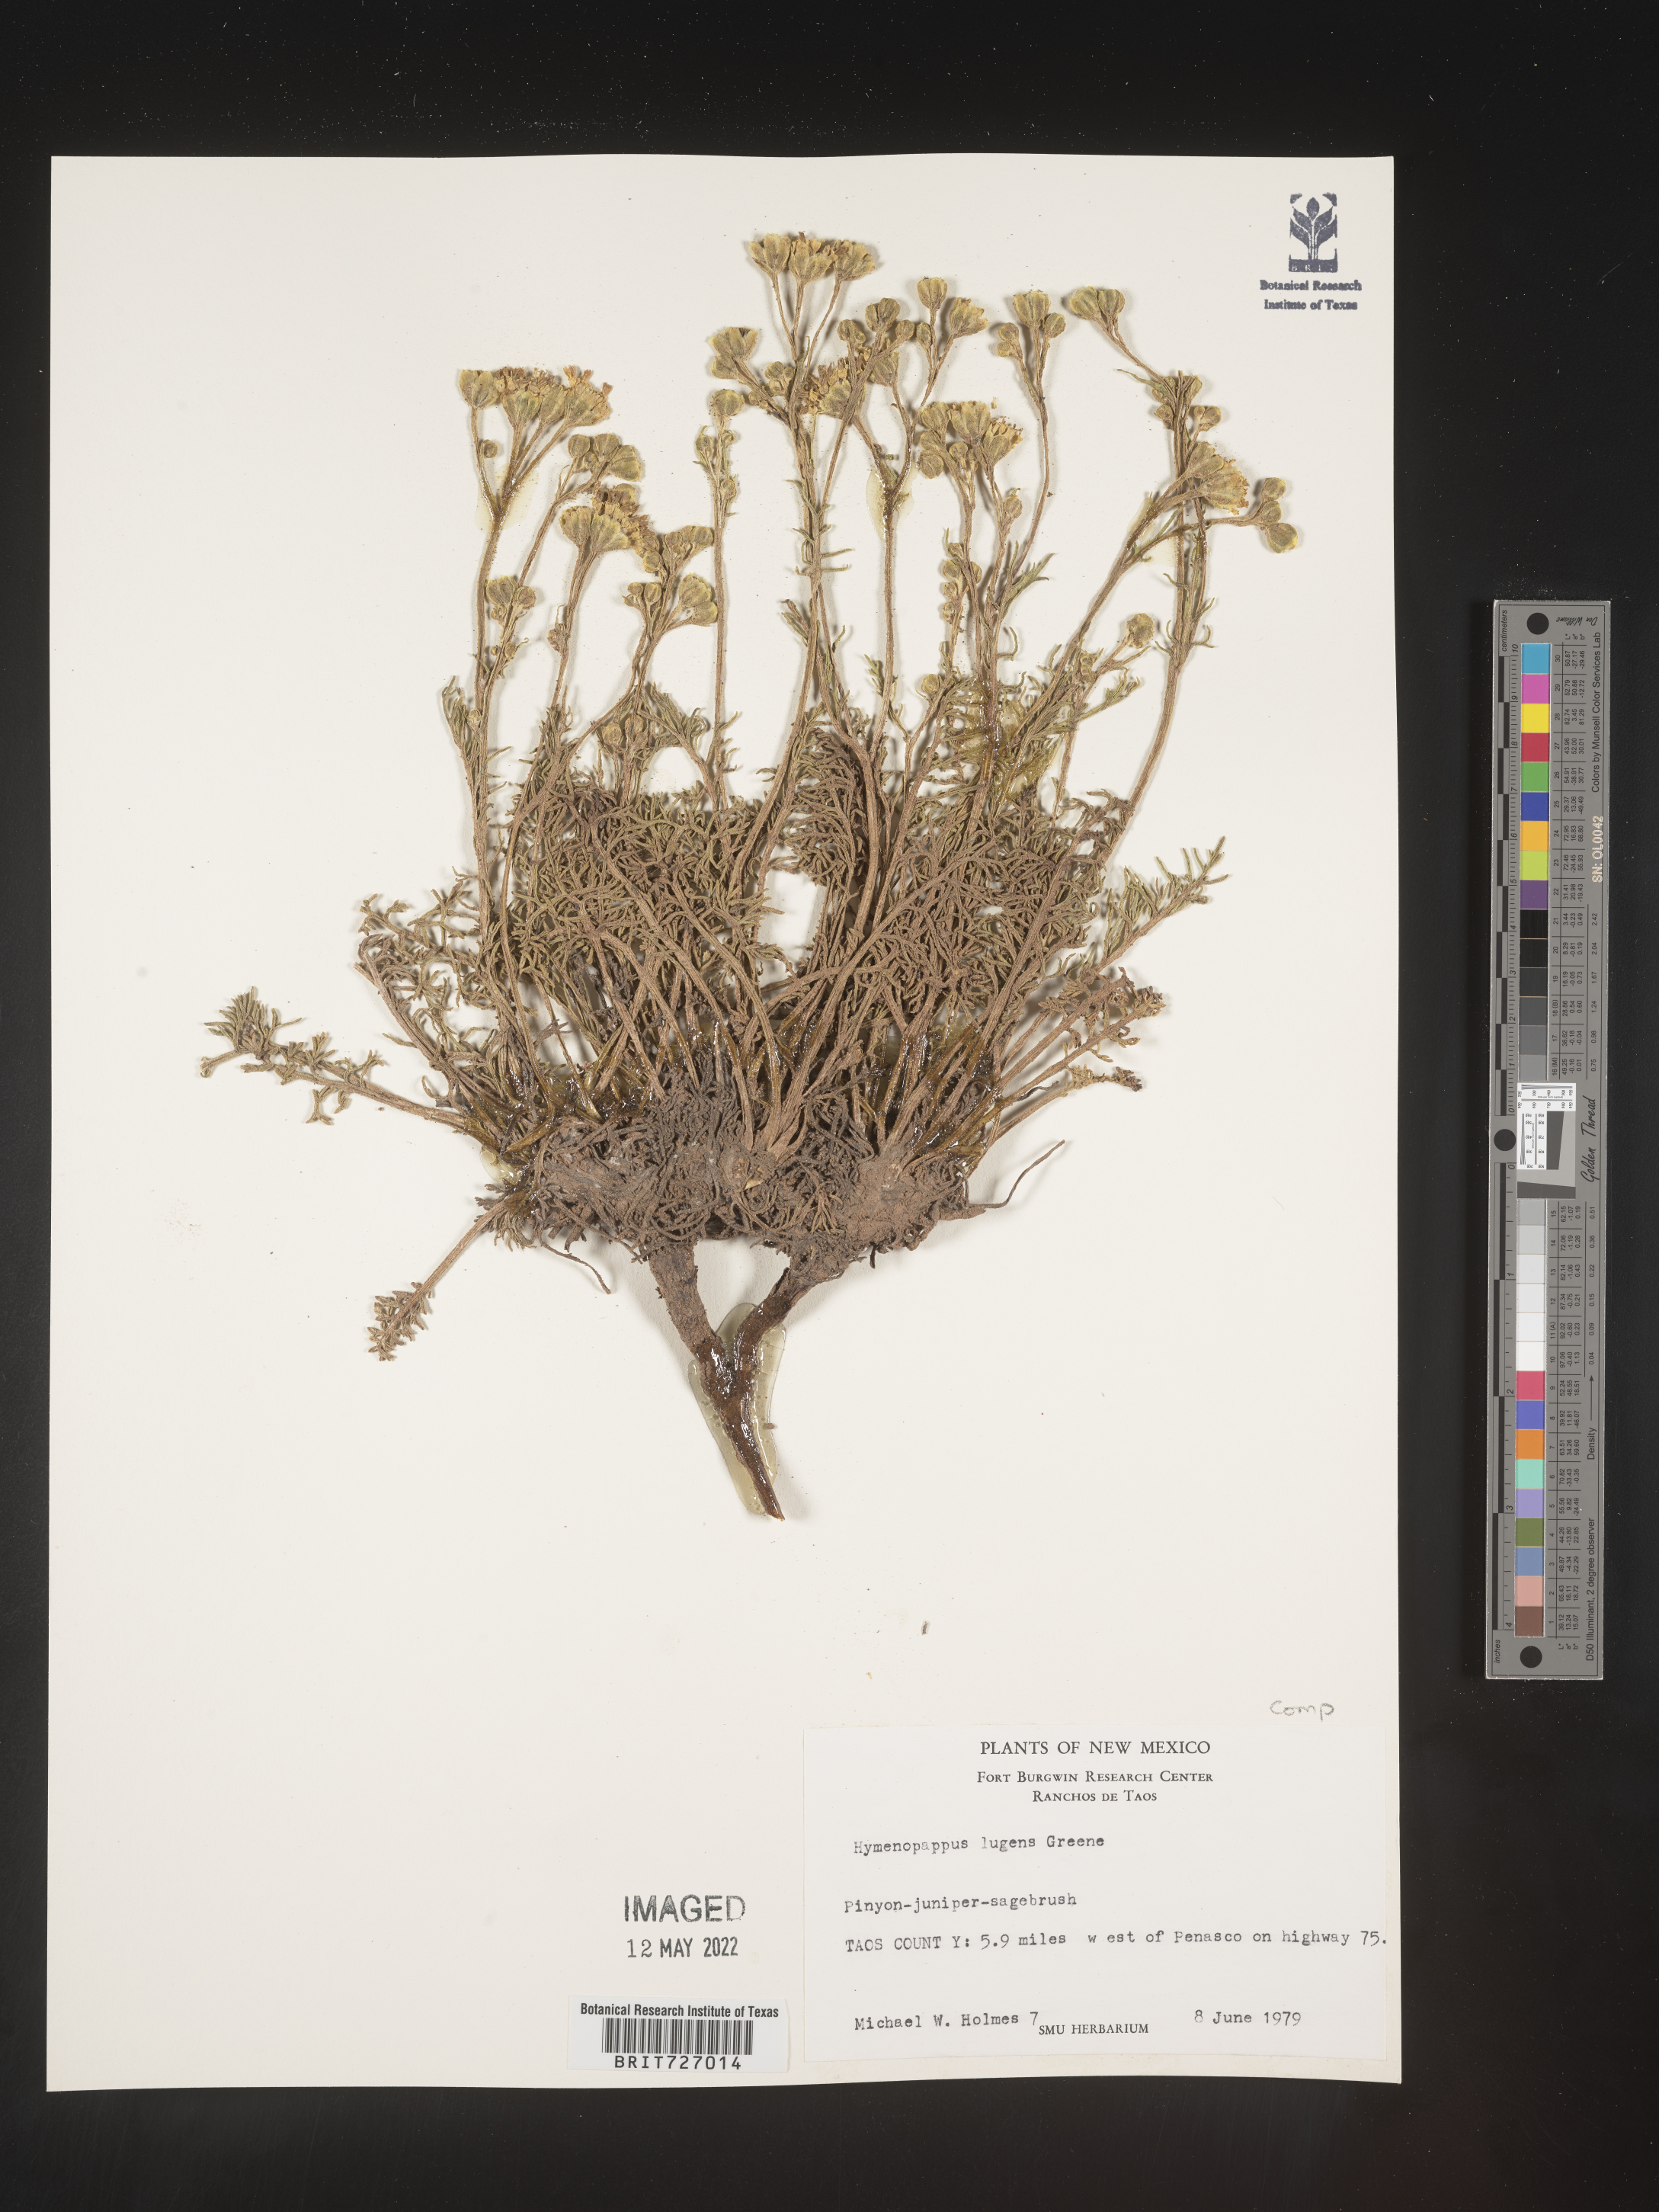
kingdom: Plantae
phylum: Tracheophyta
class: Magnoliopsida
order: Asterales
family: Asteraceae
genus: Hymenopappus
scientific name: Hymenopappus filifolius
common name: Columbia cutleaf
